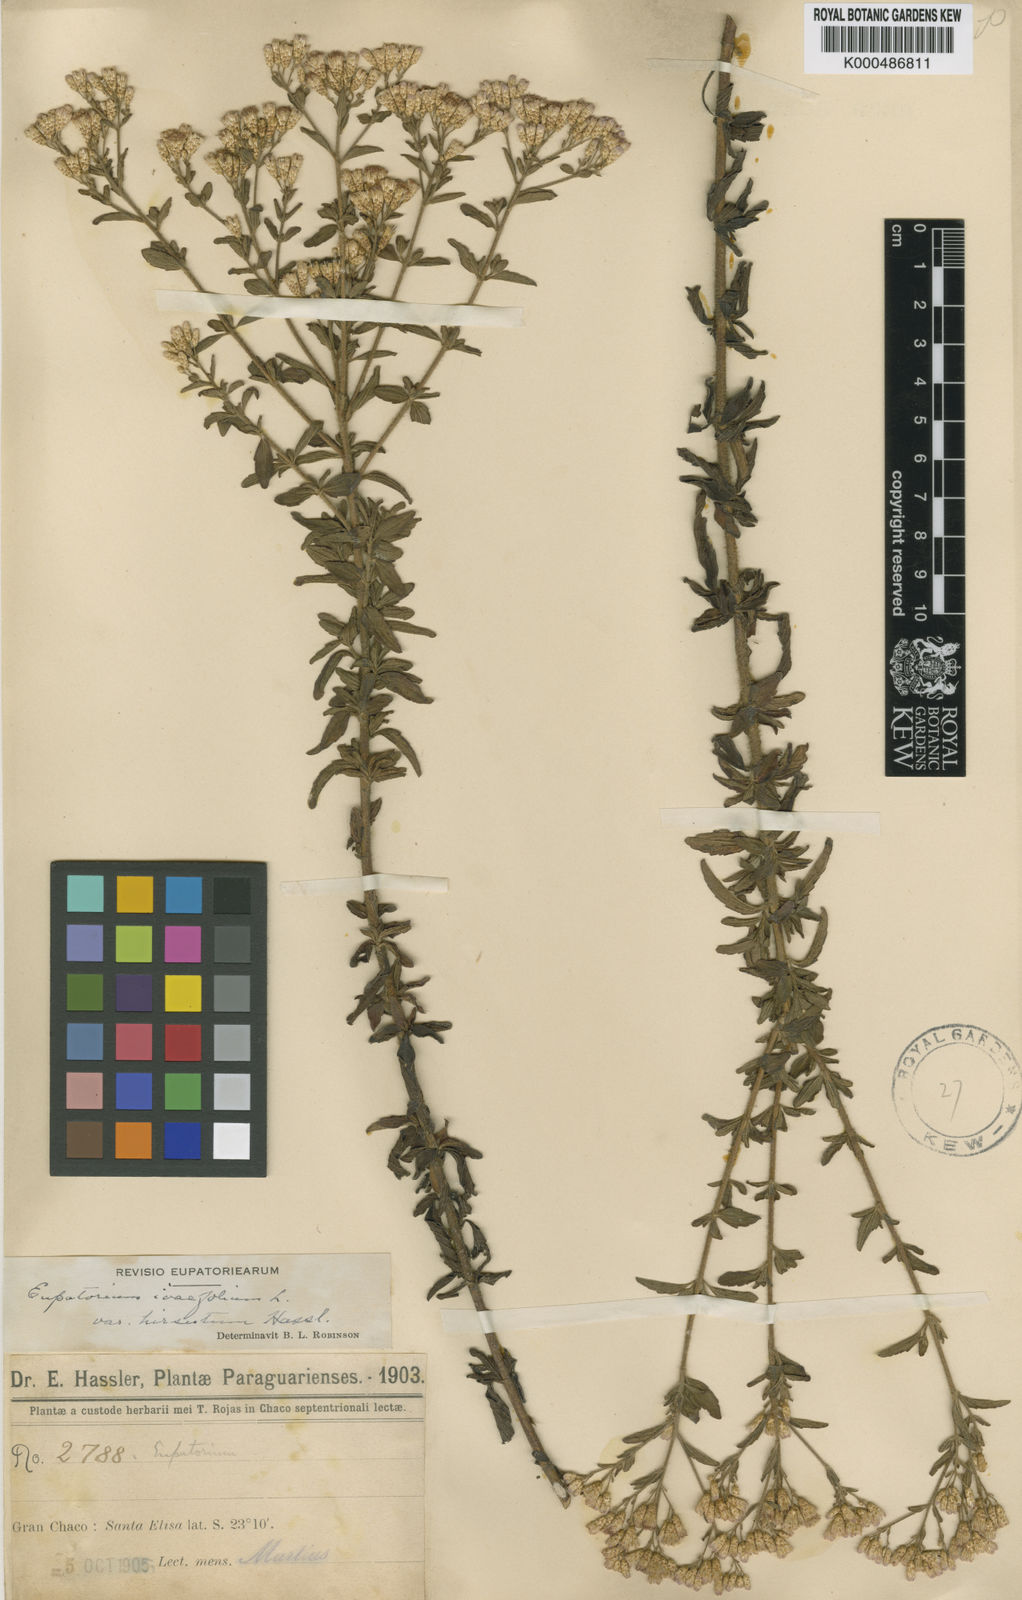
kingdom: Plantae
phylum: Tracheophyta
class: Magnoliopsida
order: Asterales
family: Asteraceae
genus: Chromolaena
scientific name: Chromolaena ivifolia
